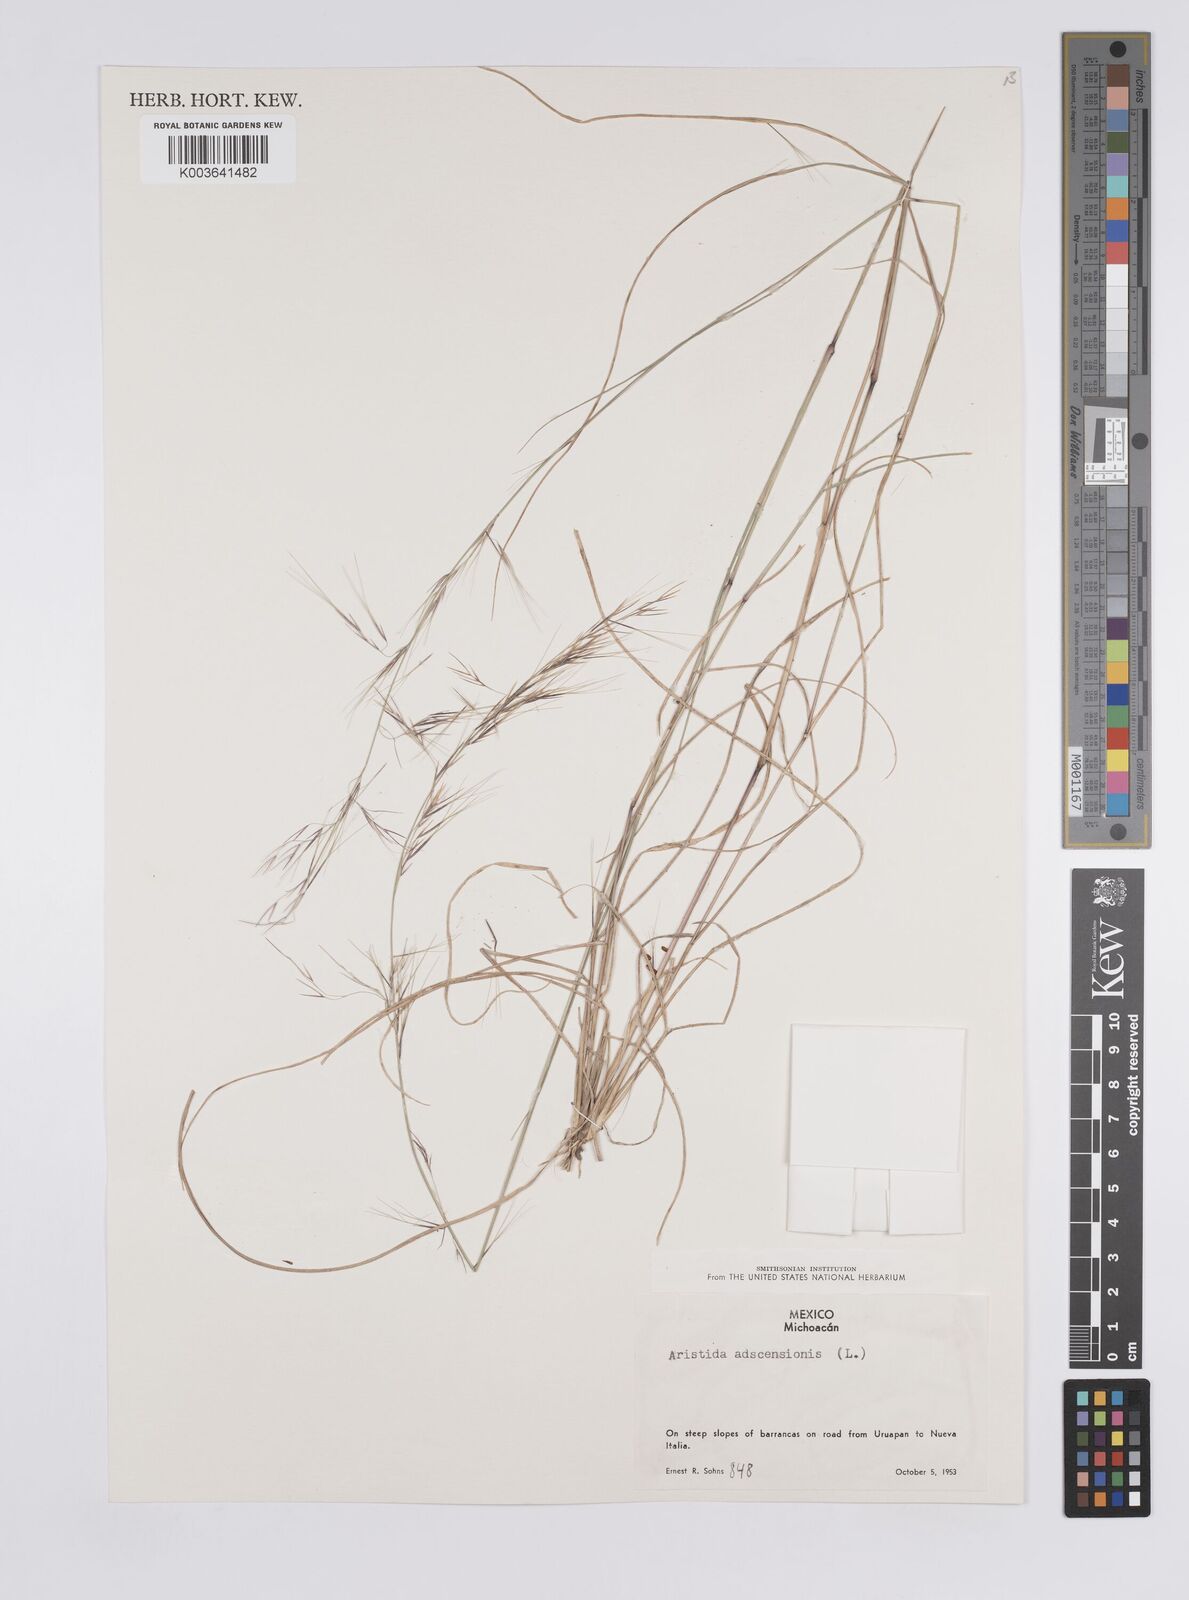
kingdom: Plantae
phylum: Tracheophyta
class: Liliopsida
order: Poales
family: Poaceae
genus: Aristida
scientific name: Aristida adscensionis
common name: Sixweeks threeawn
